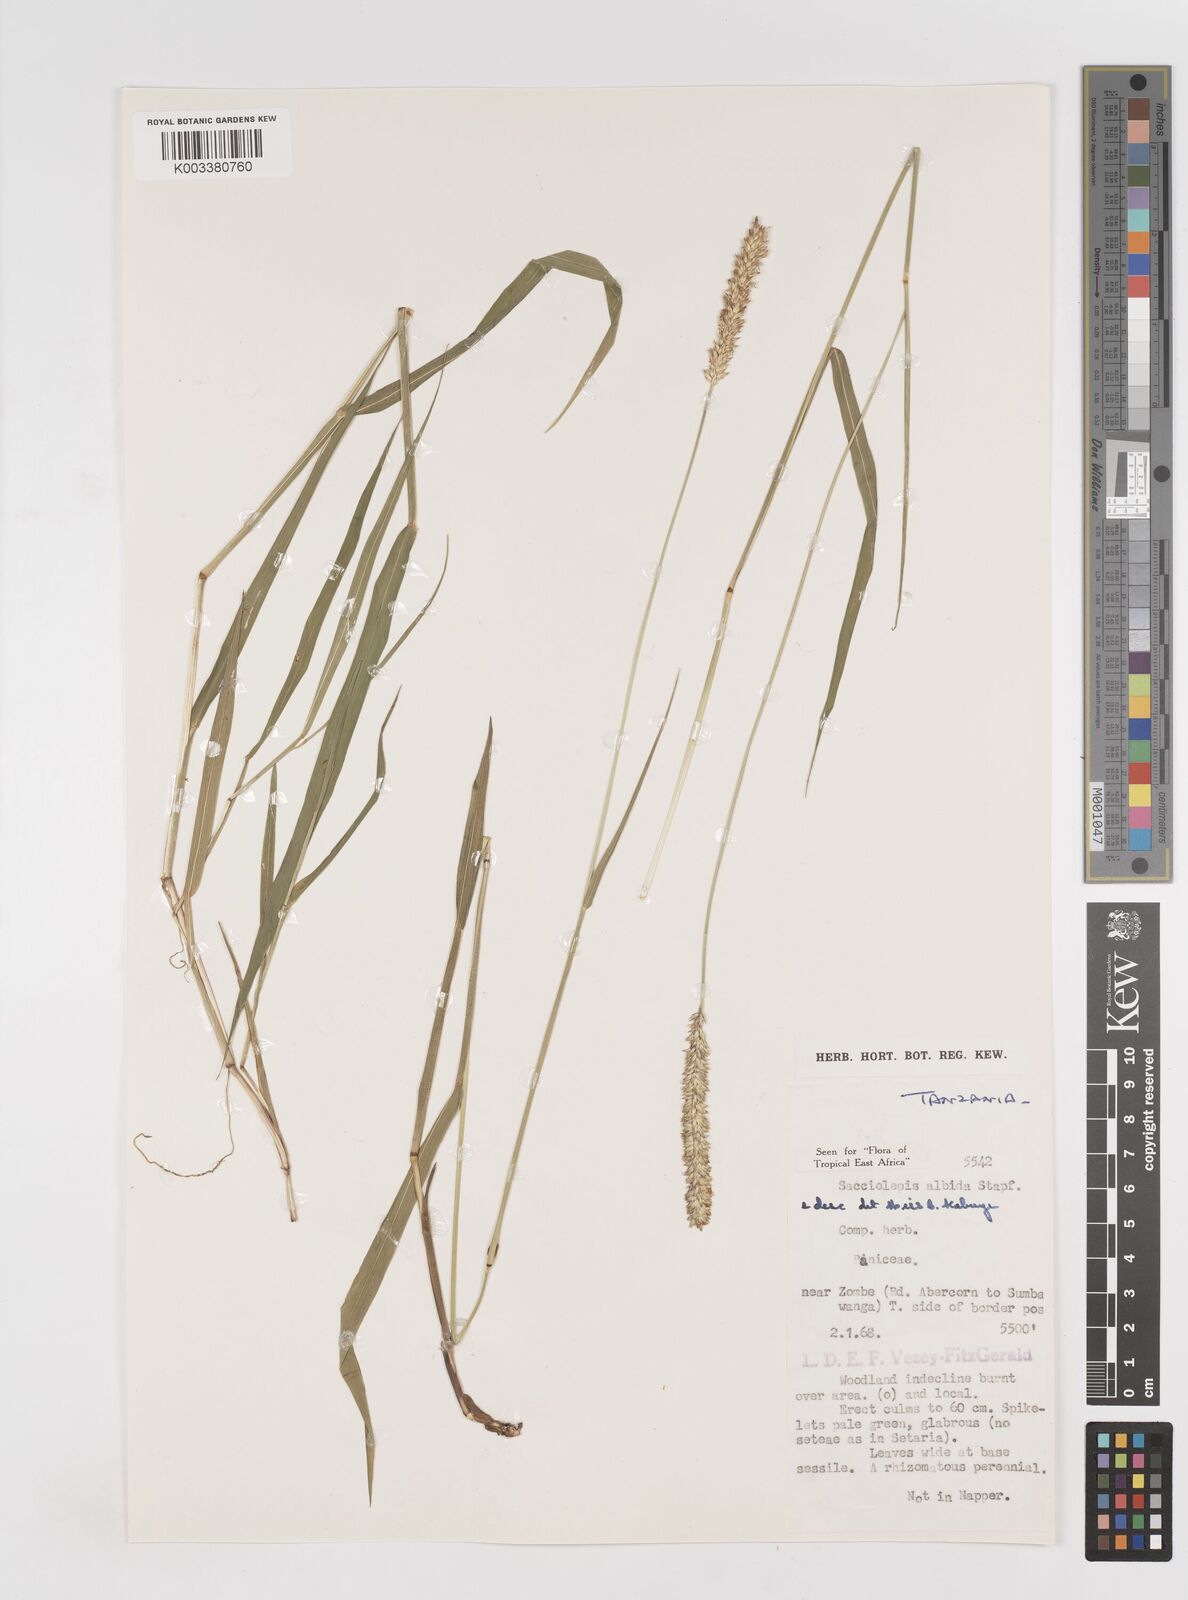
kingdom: Plantae
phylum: Tracheophyta
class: Liliopsida
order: Poales
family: Poaceae
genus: Sacciolepis
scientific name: Sacciolepis seslerioides
